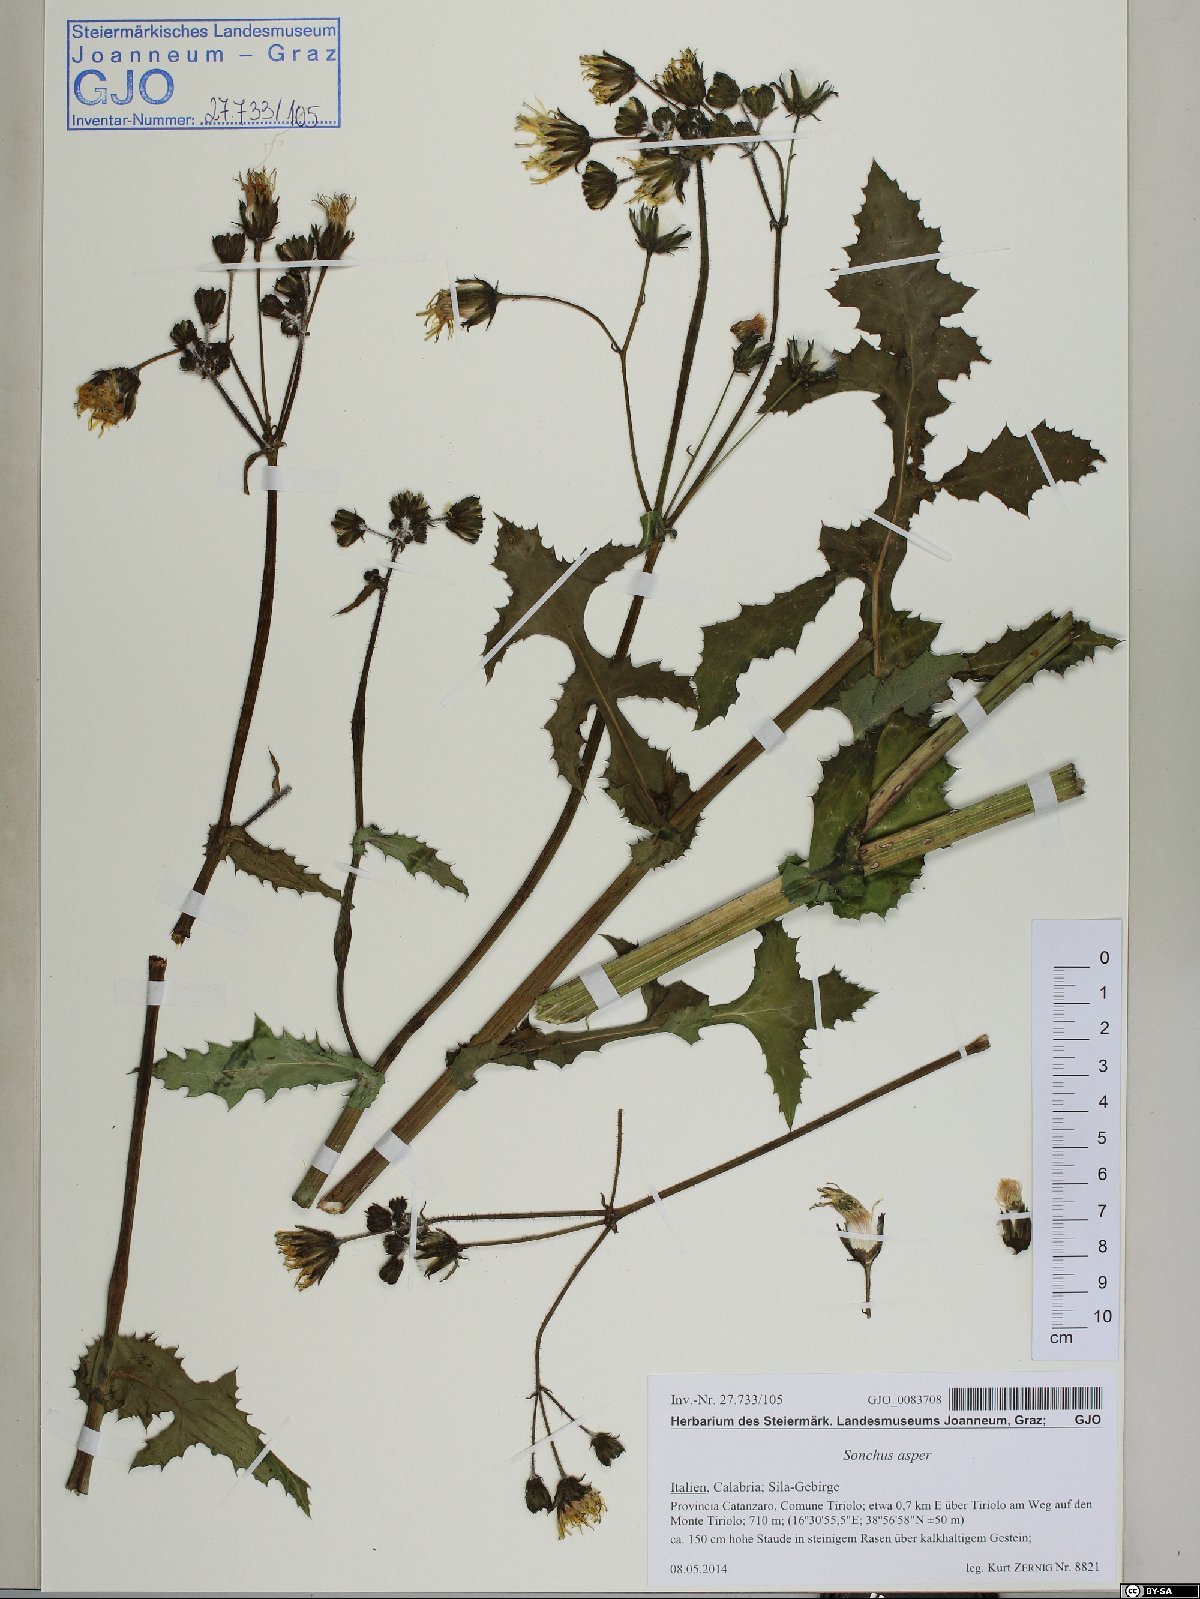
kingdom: Plantae
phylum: Tracheophyta
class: Magnoliopsida
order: Asterales
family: Asteraceae
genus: Sonchus
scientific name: Sonchus asper
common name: Prickly sow-thistle
